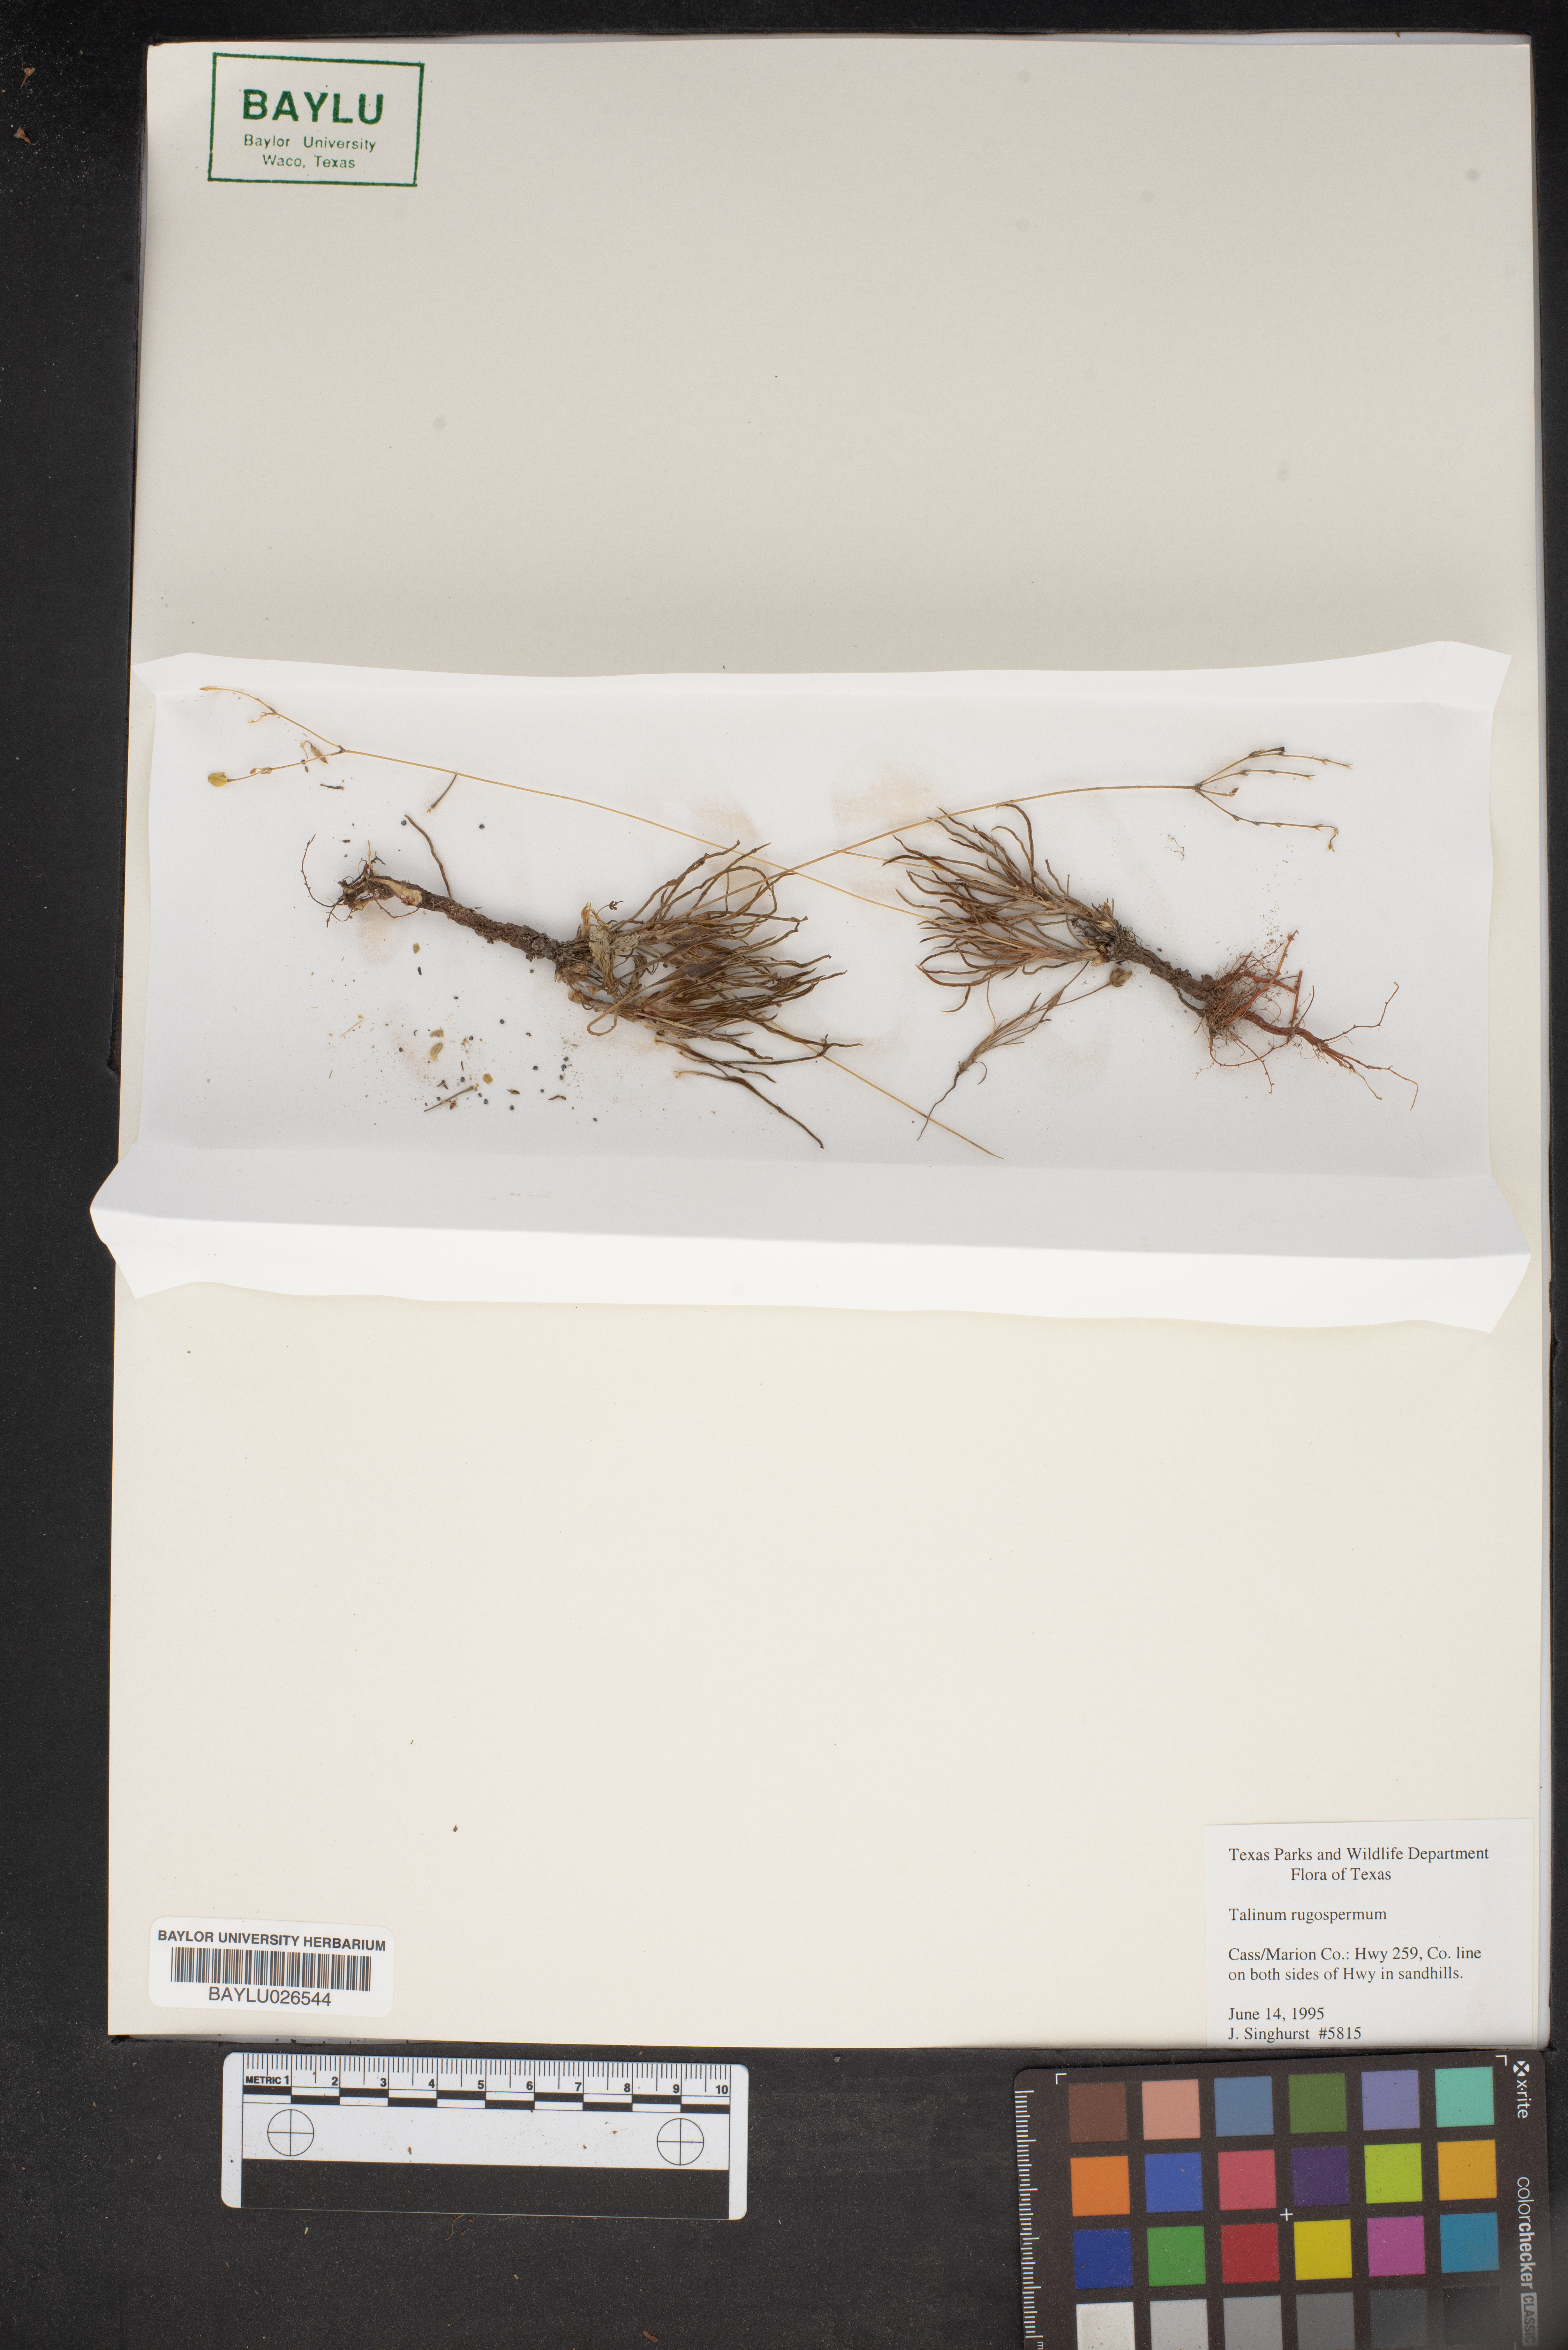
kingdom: Plantae
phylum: Tracheophyta
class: Magnoliopsida
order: Caryophyllales
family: Montiaceae
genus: Phemeranthus
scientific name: Phemeranthus rugospermus
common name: Prairie fameflower
